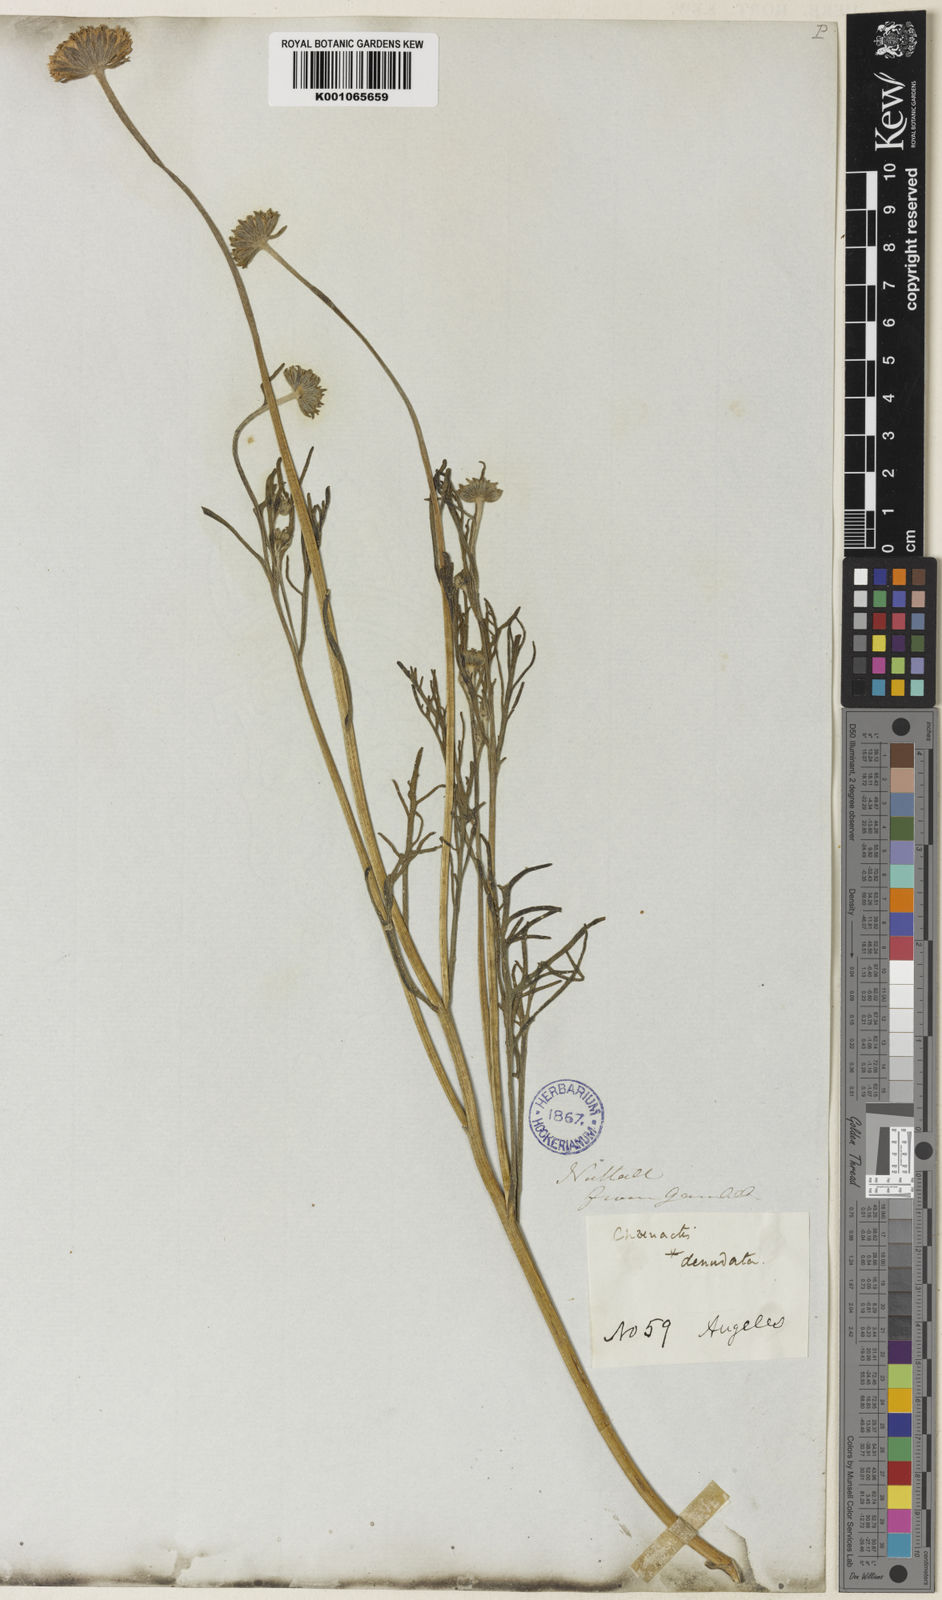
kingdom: Plantae
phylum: Tracheophyta
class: Magnoliopsida
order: Asterales
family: Asteraceae
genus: Chaenactis
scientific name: Chaenactis glabriuscula
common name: Yellow pincushion
